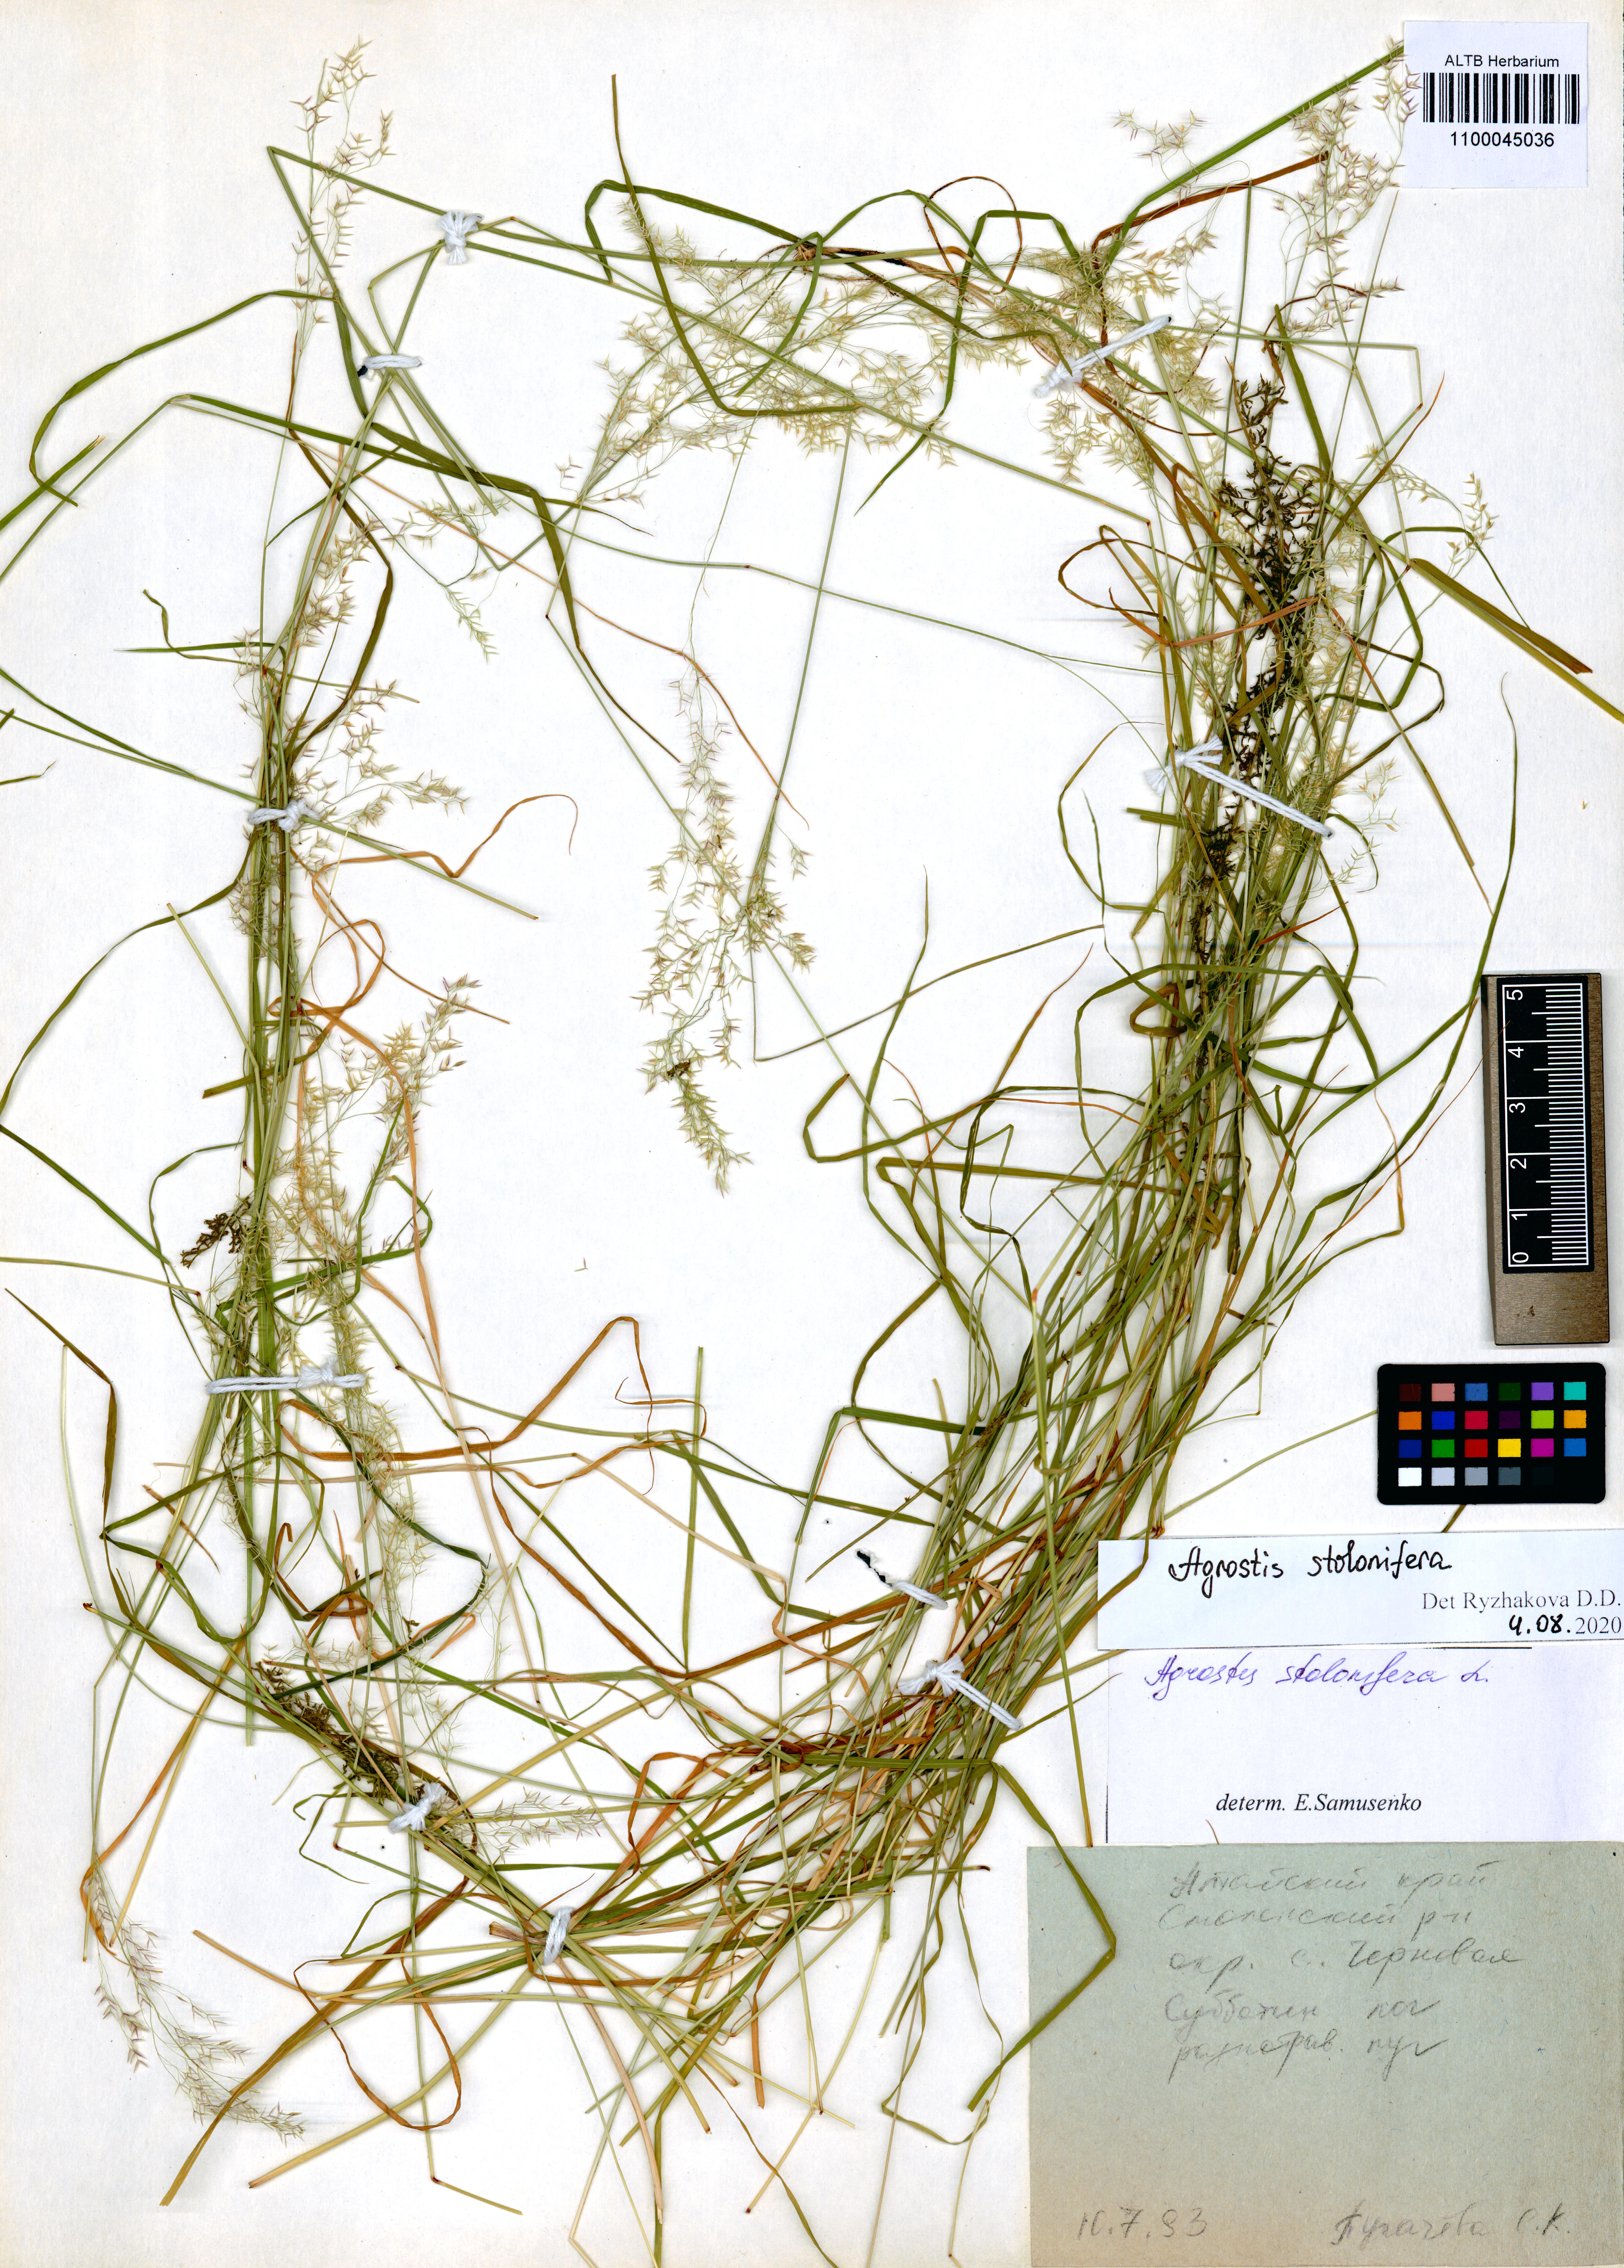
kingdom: Plantae
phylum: Tracheophyta
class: Liliopsida
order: Poales
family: Poaceae
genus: Agrostis
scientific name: Agrostis stolonifera
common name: Creeping bentgrass
